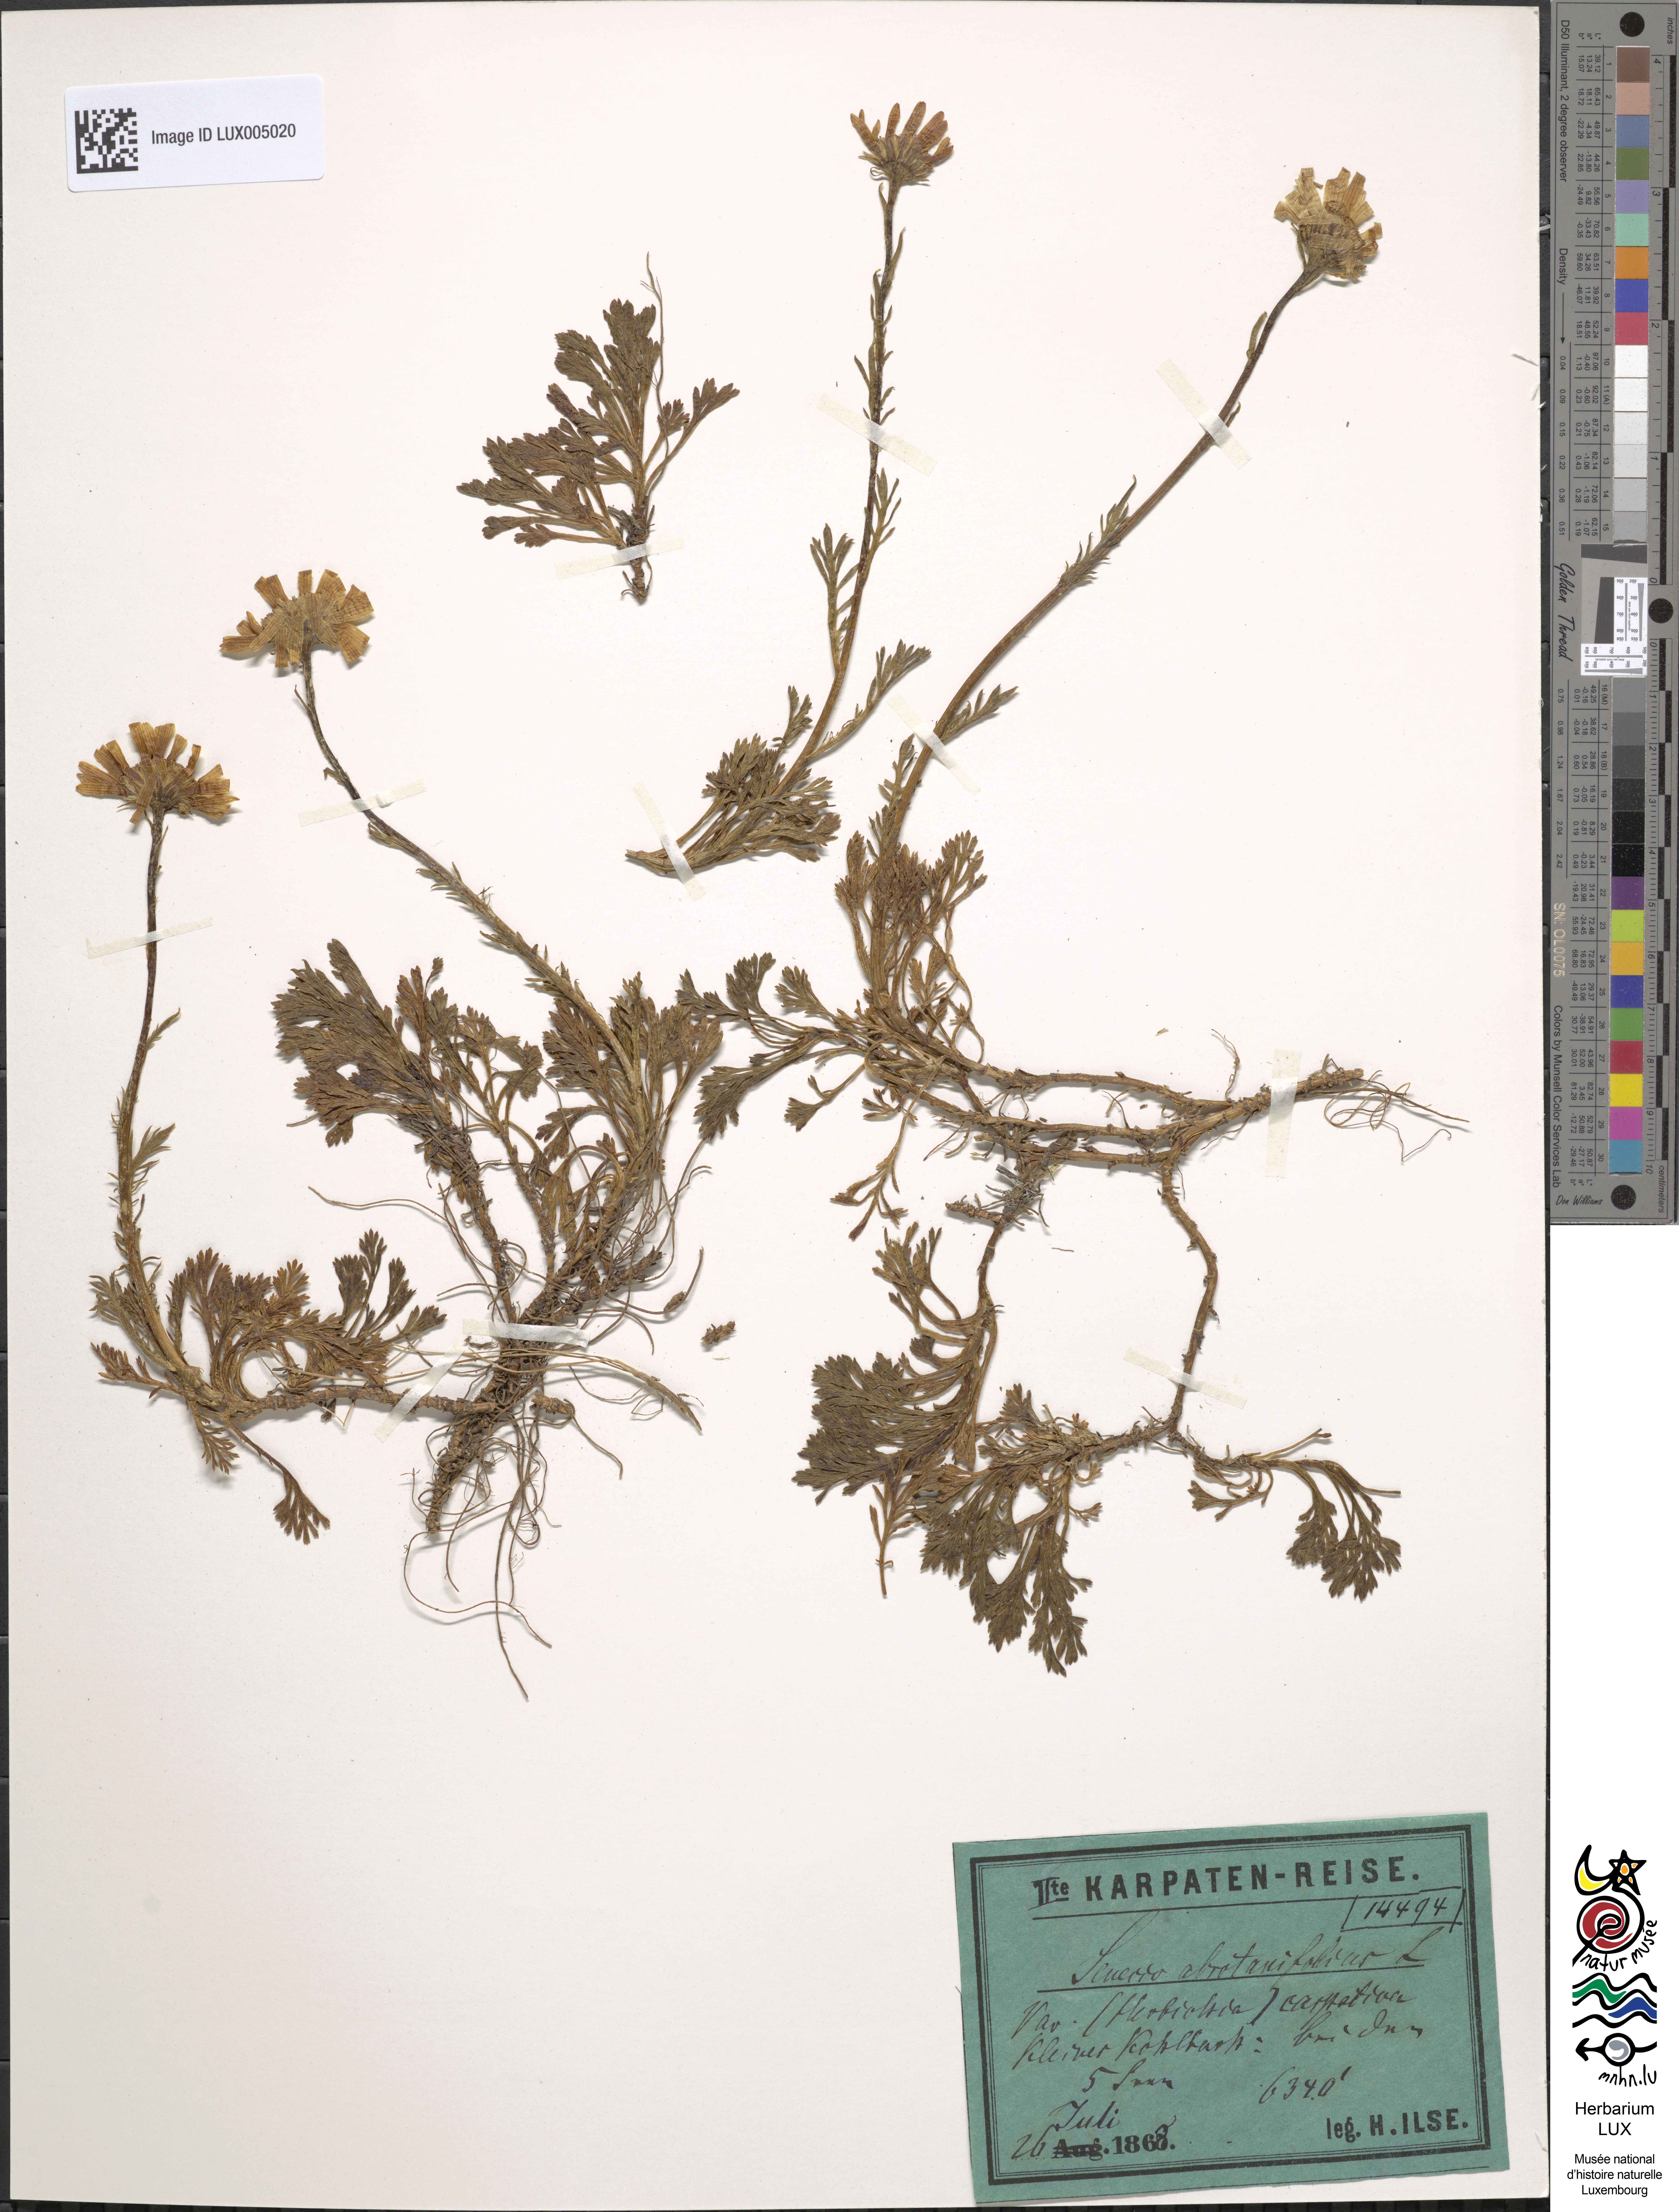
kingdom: Plantae
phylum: Tracheophyta
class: Magnoliopsida
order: Asterales
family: Asteraceae
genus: Senecio
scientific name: Senecio abrotanifolius
